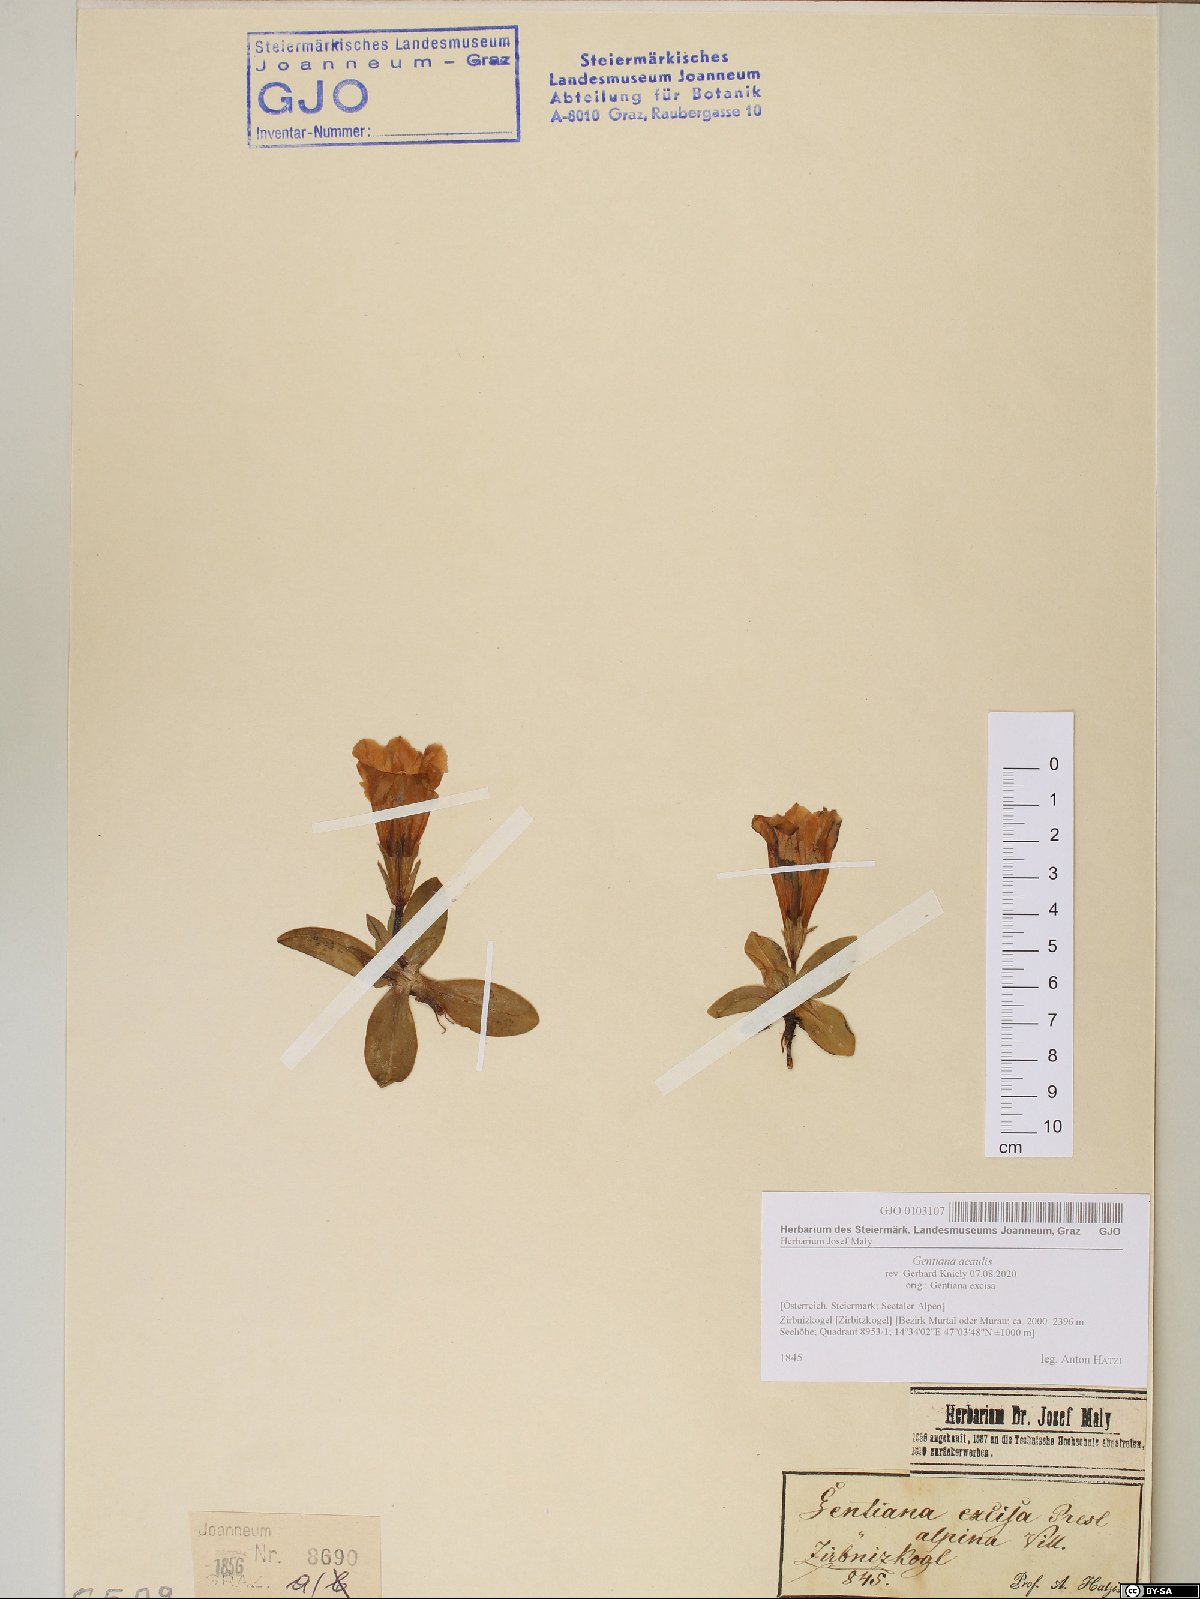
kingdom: Plantae
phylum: Tracheophyta
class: Magnoliopsida
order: Gentianales
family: Gentianaceae
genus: Gentiana
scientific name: Gentiana acaulis
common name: Trumpet gentian
